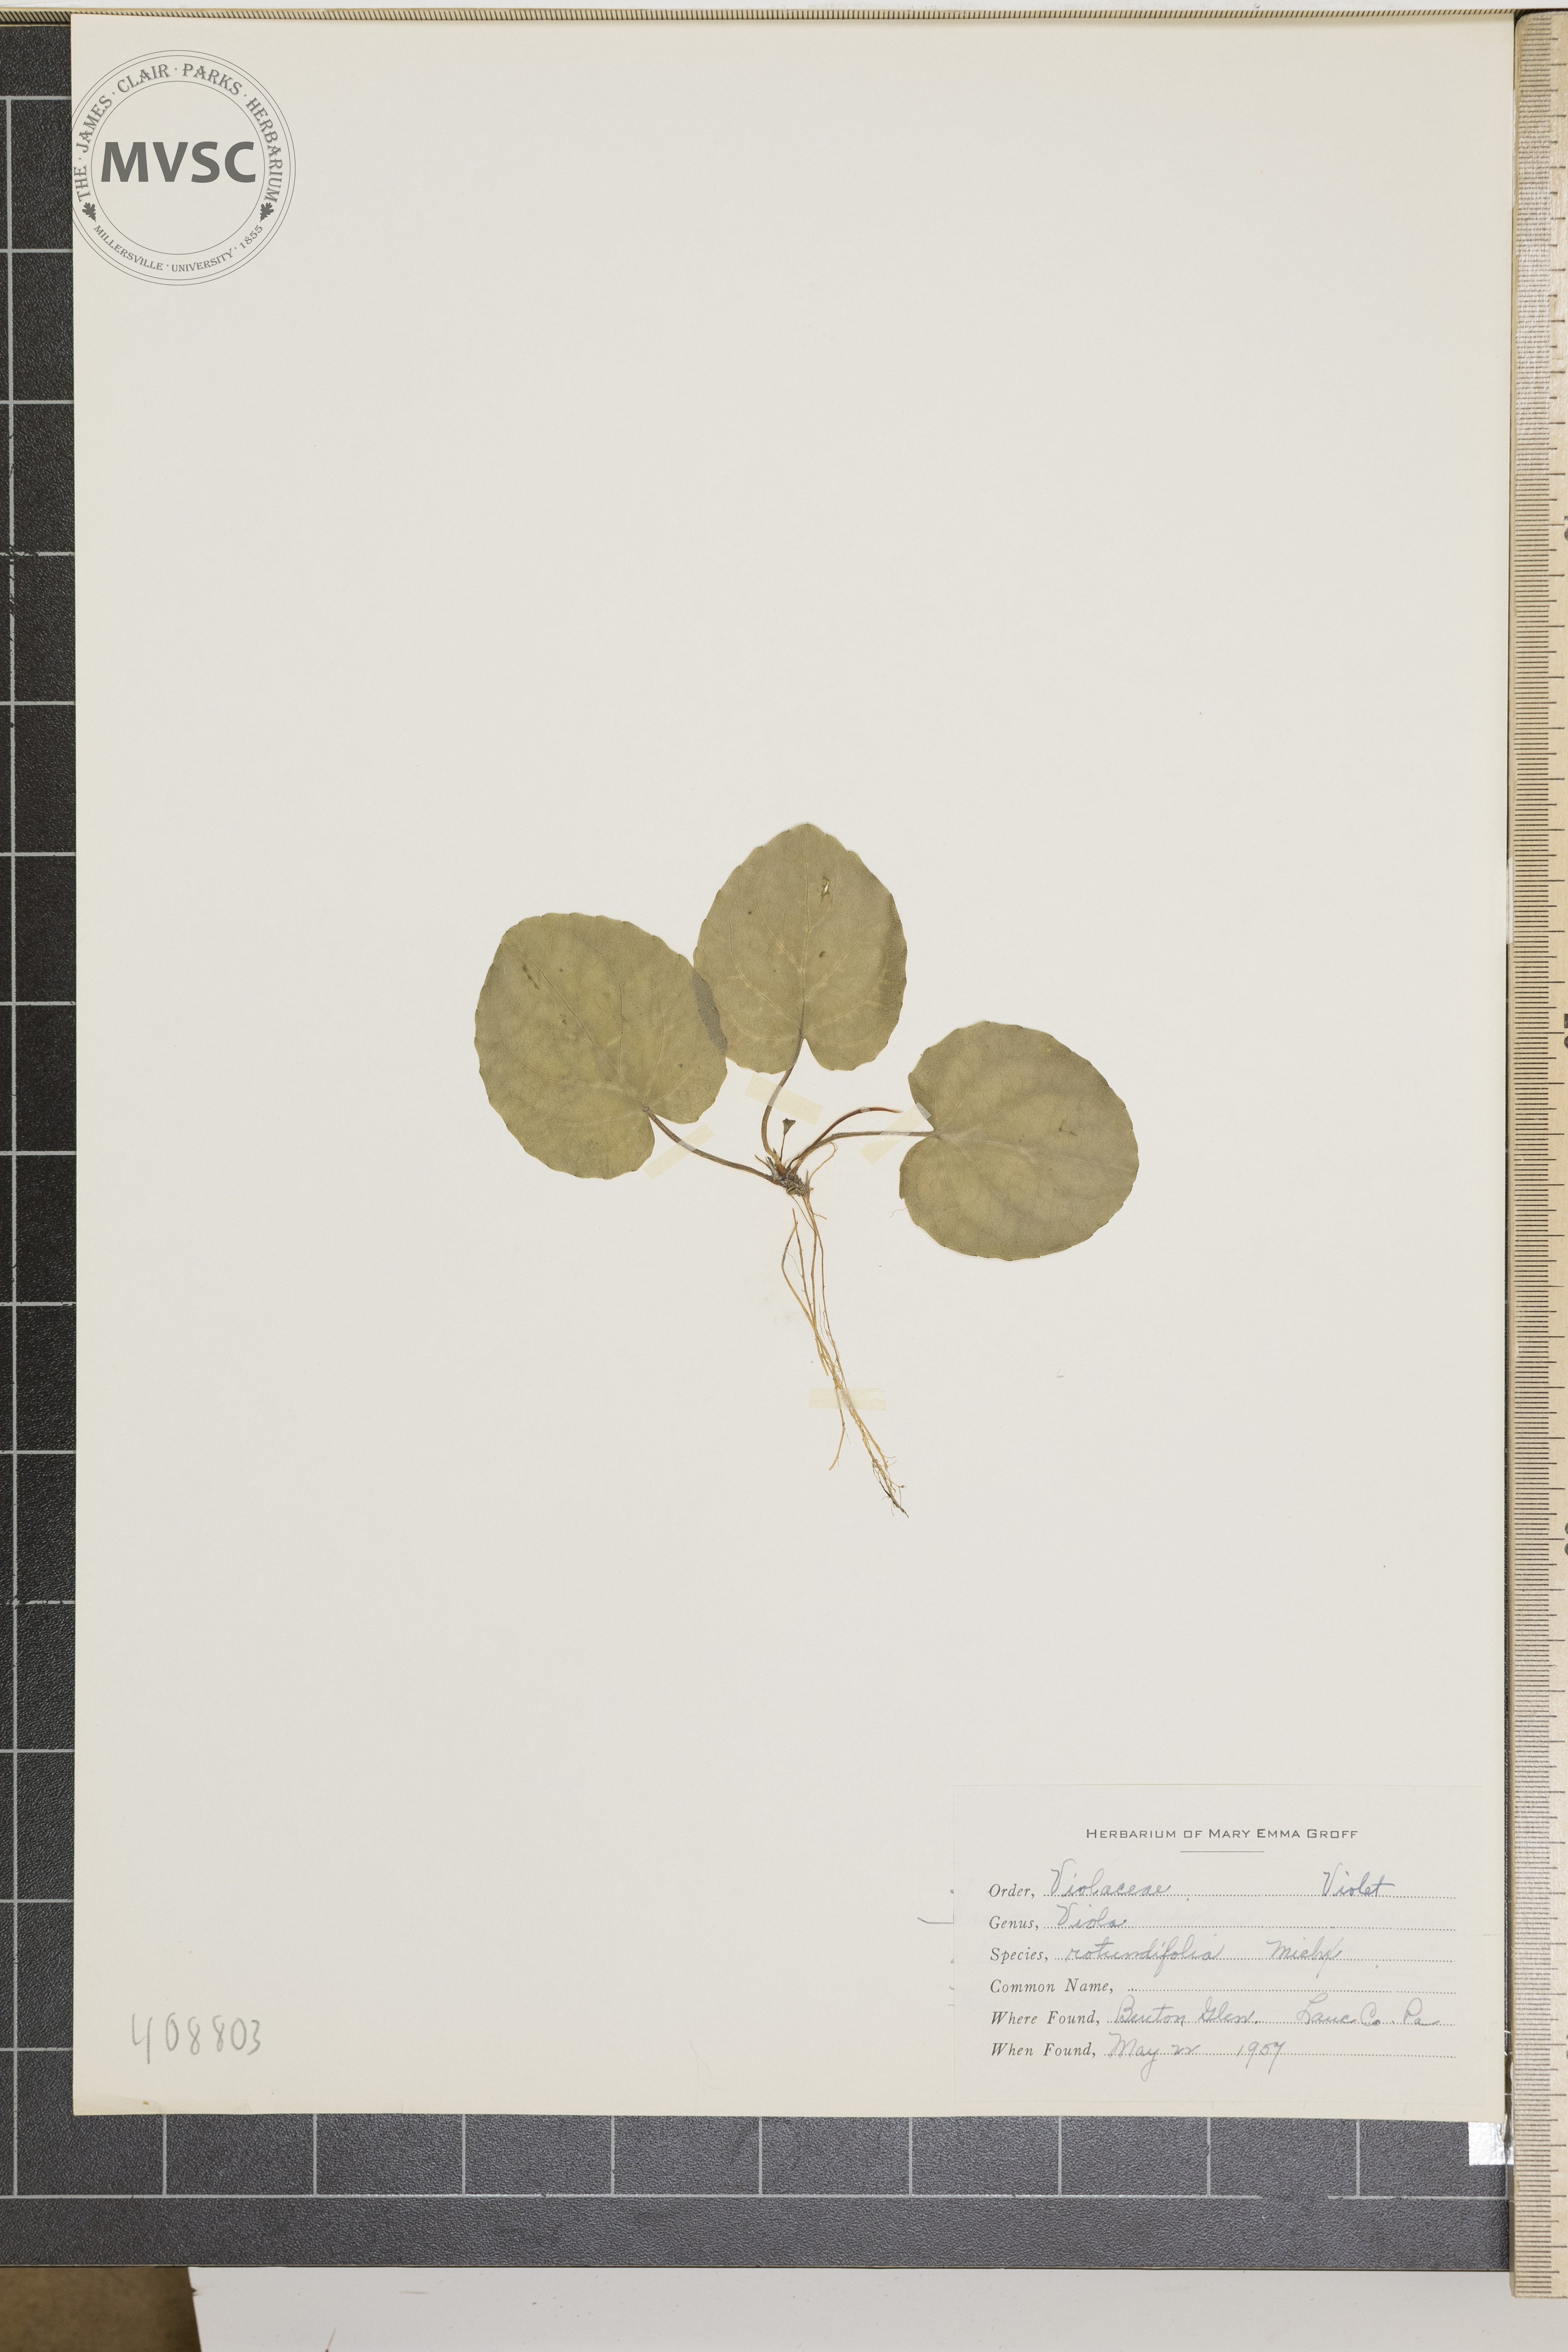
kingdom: Plantae
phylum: Tracheophyta
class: Magnoliopsida
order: Malpighiales
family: Violaceae
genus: Viola
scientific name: Viola rotundifolia
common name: Early yellow violet
